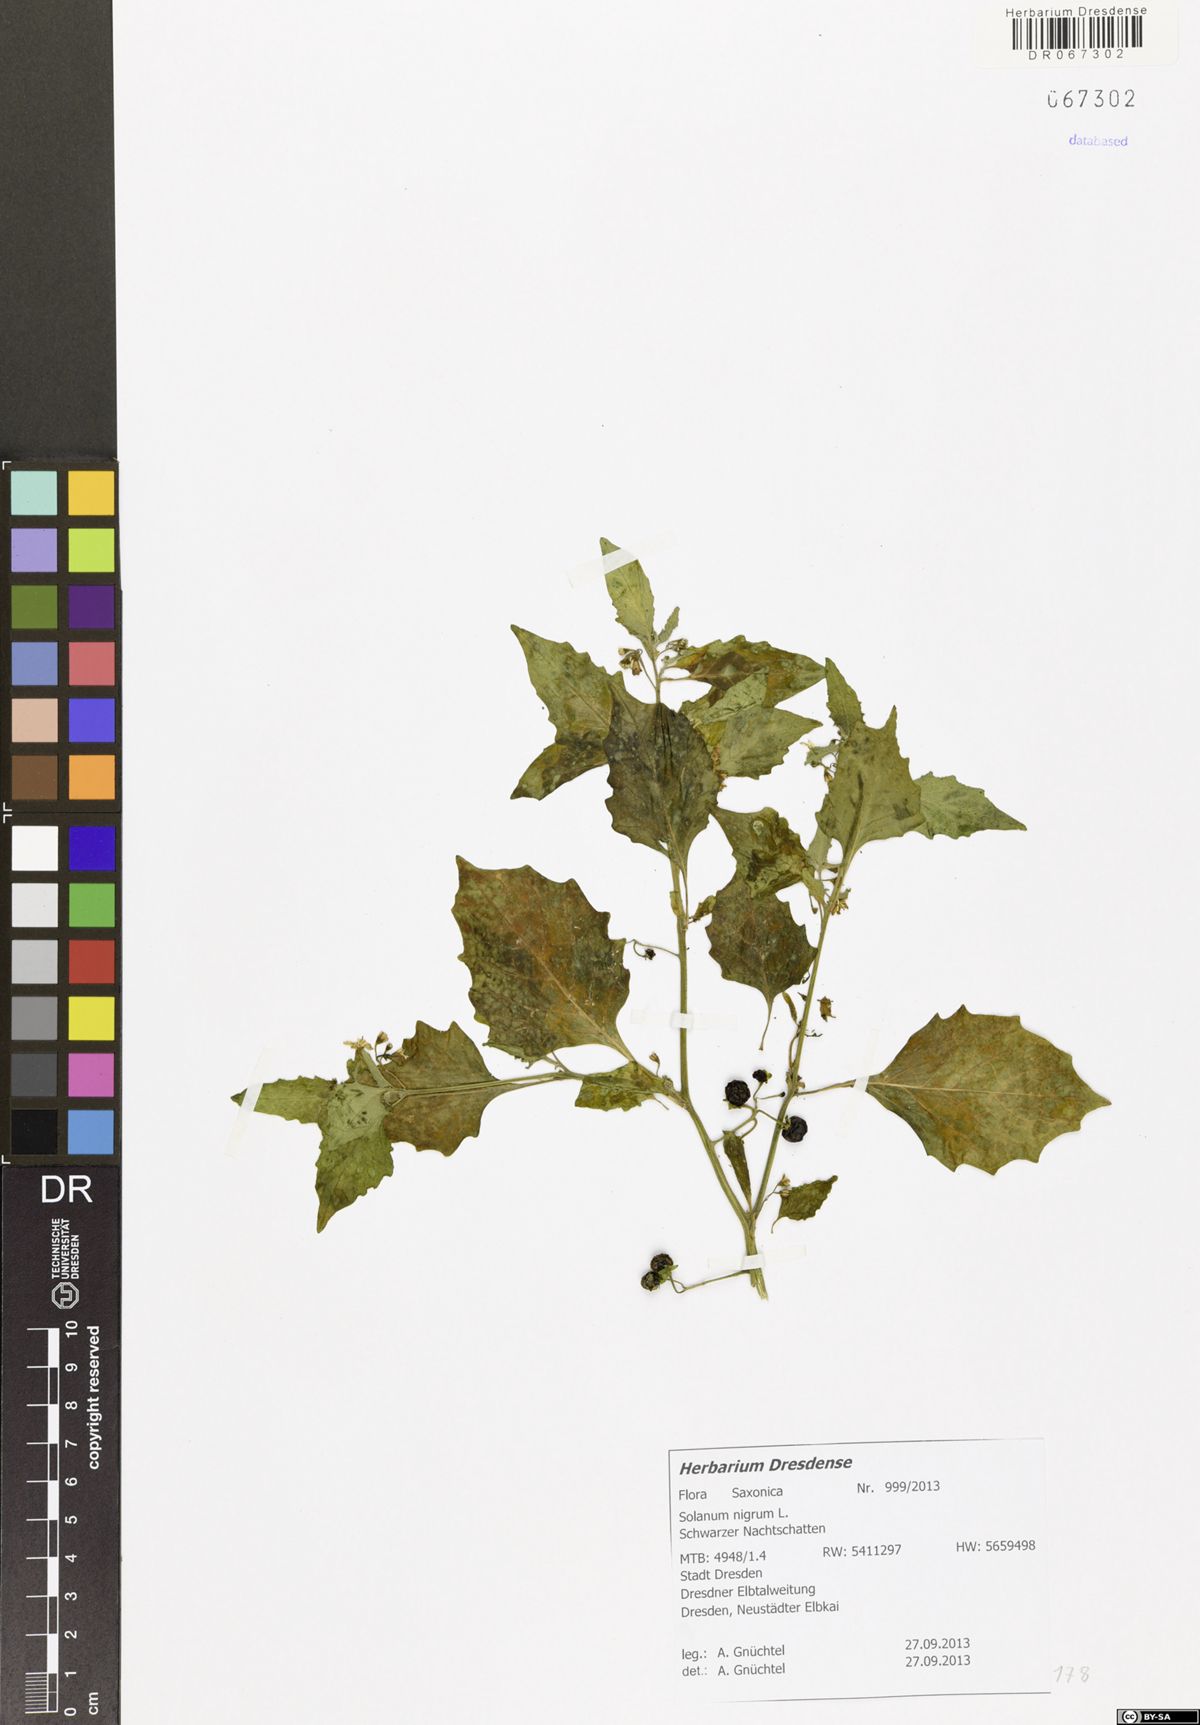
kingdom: Plantae
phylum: Tracheophyta
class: Magnoliopsida
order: Solanales
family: Solanaceae
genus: Solanum
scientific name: Solanum nigrum
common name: Black nightshade
